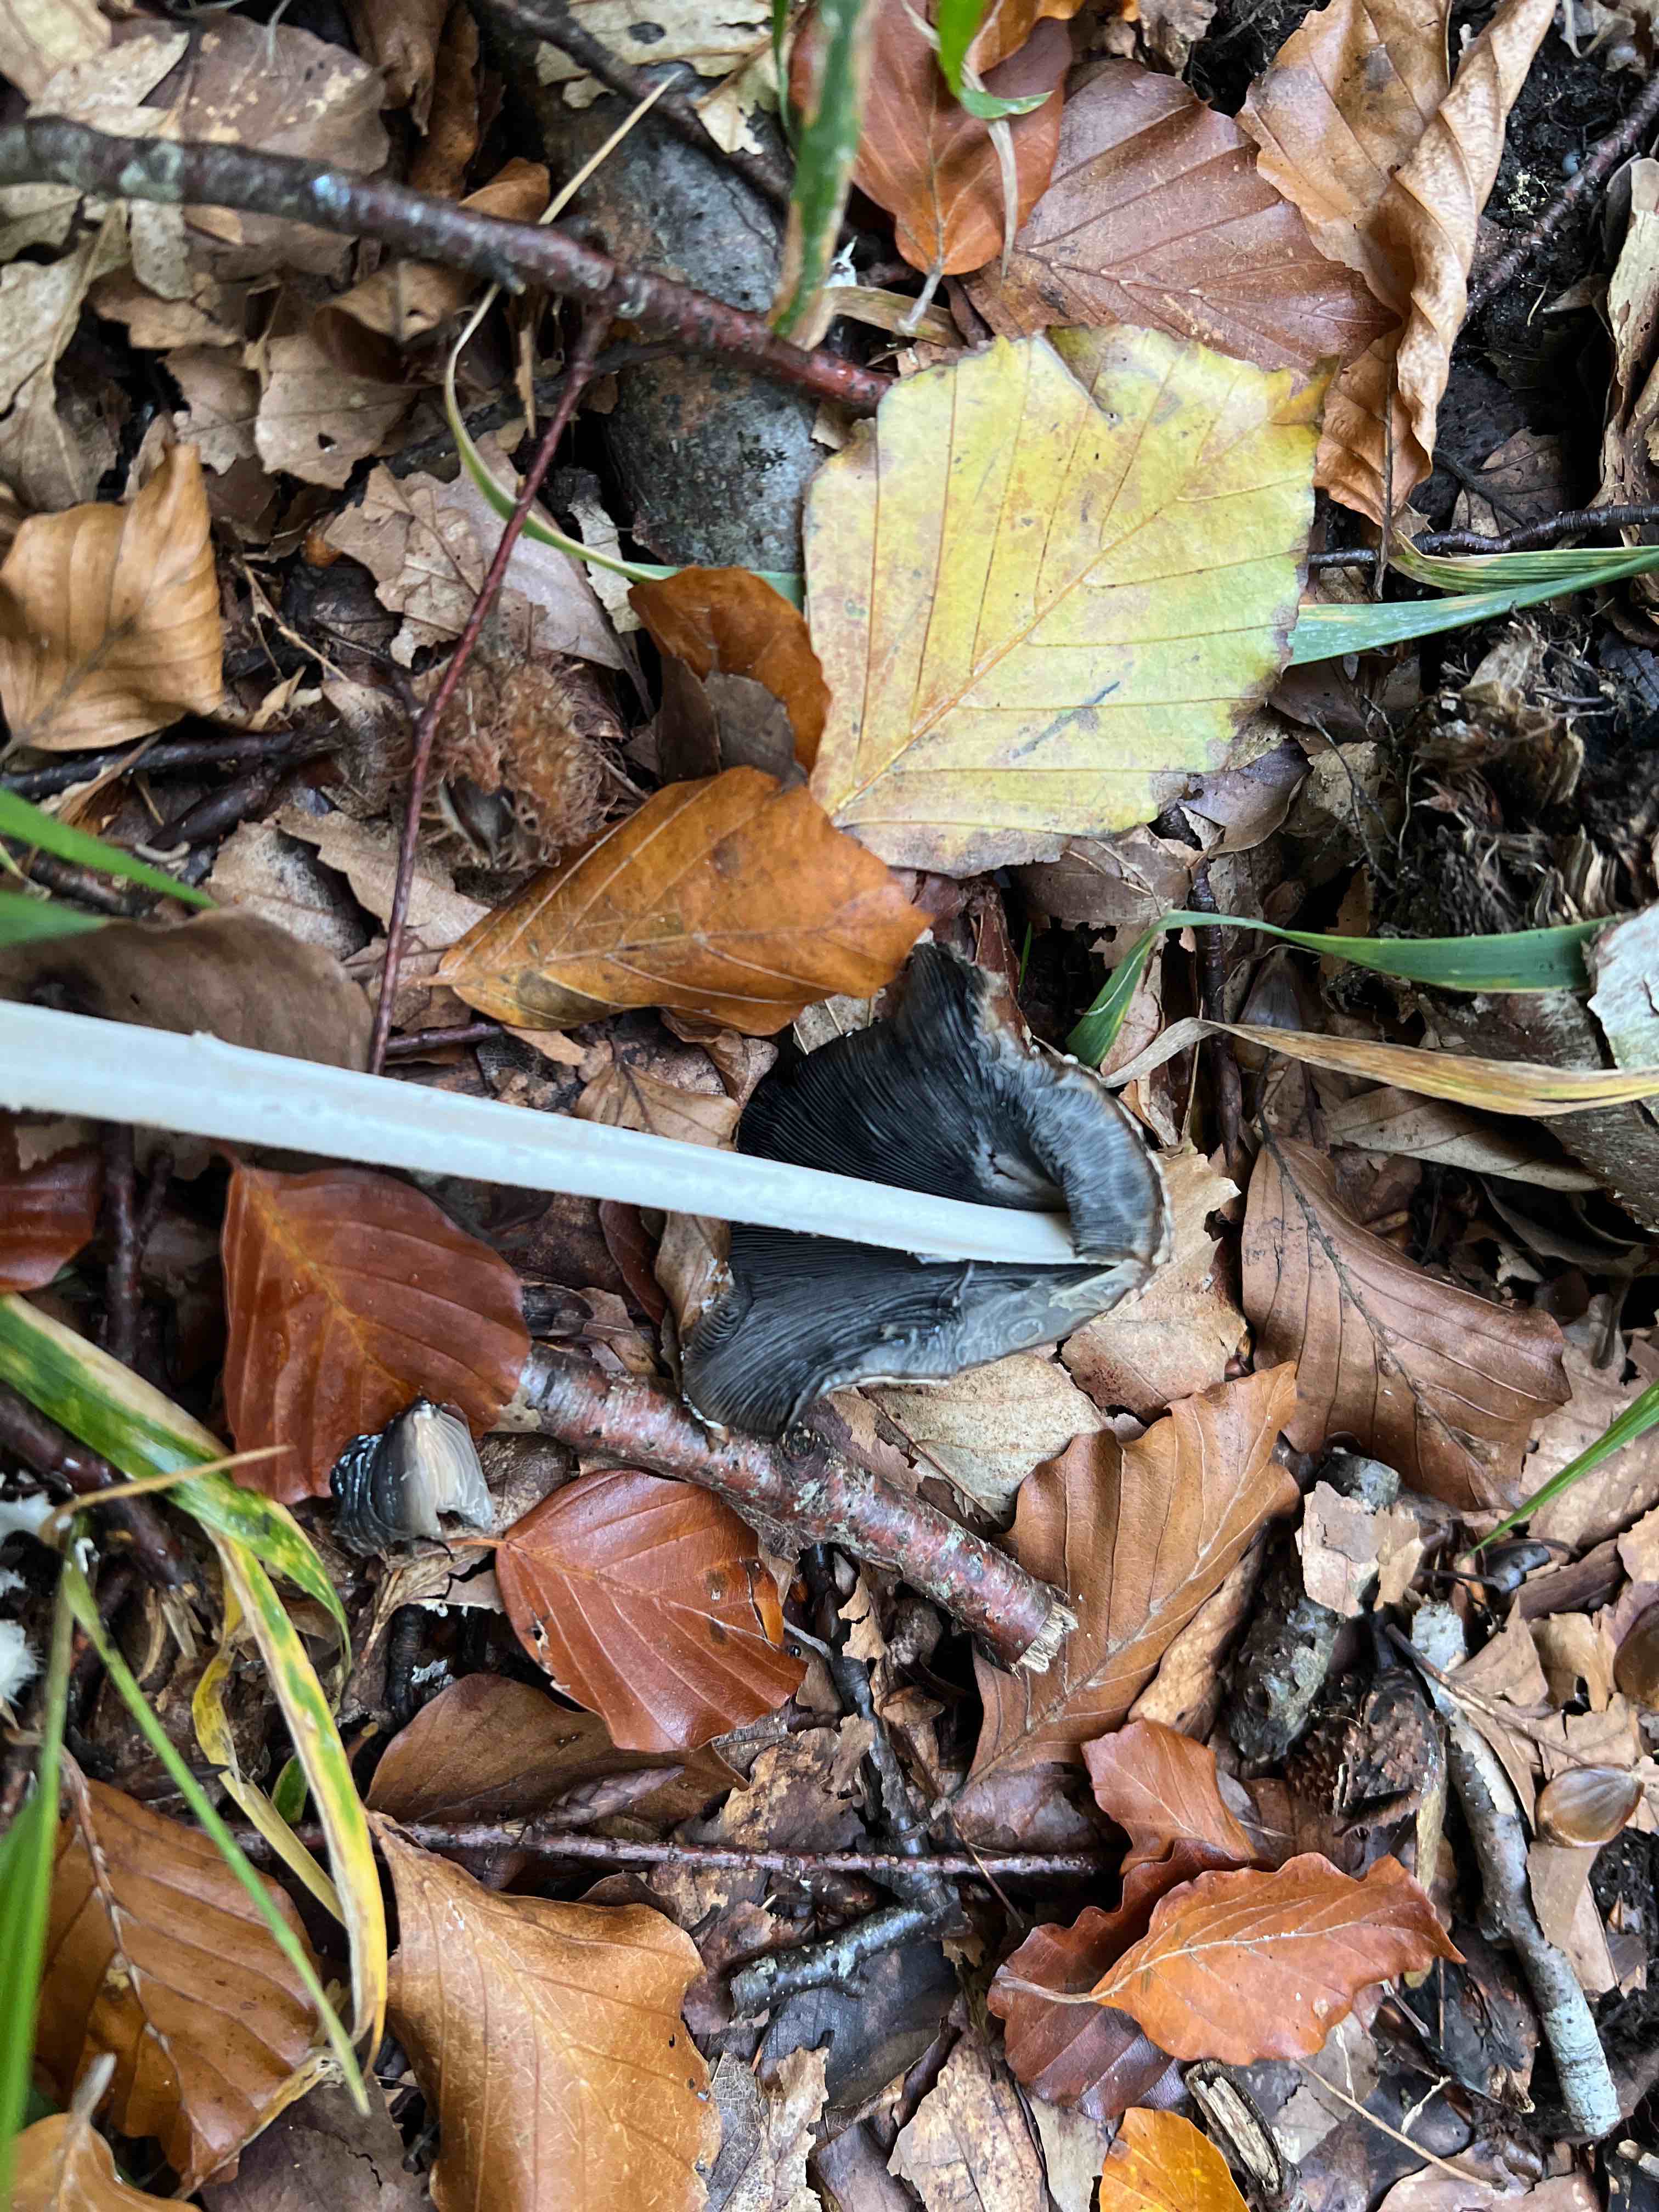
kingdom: Fungi
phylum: Basidiomycota
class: Agaricomycetes
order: Agaricales
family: Psathyrellaceae
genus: Coprinopsis
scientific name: Coprinopsis picacea
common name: skade-blækhat
